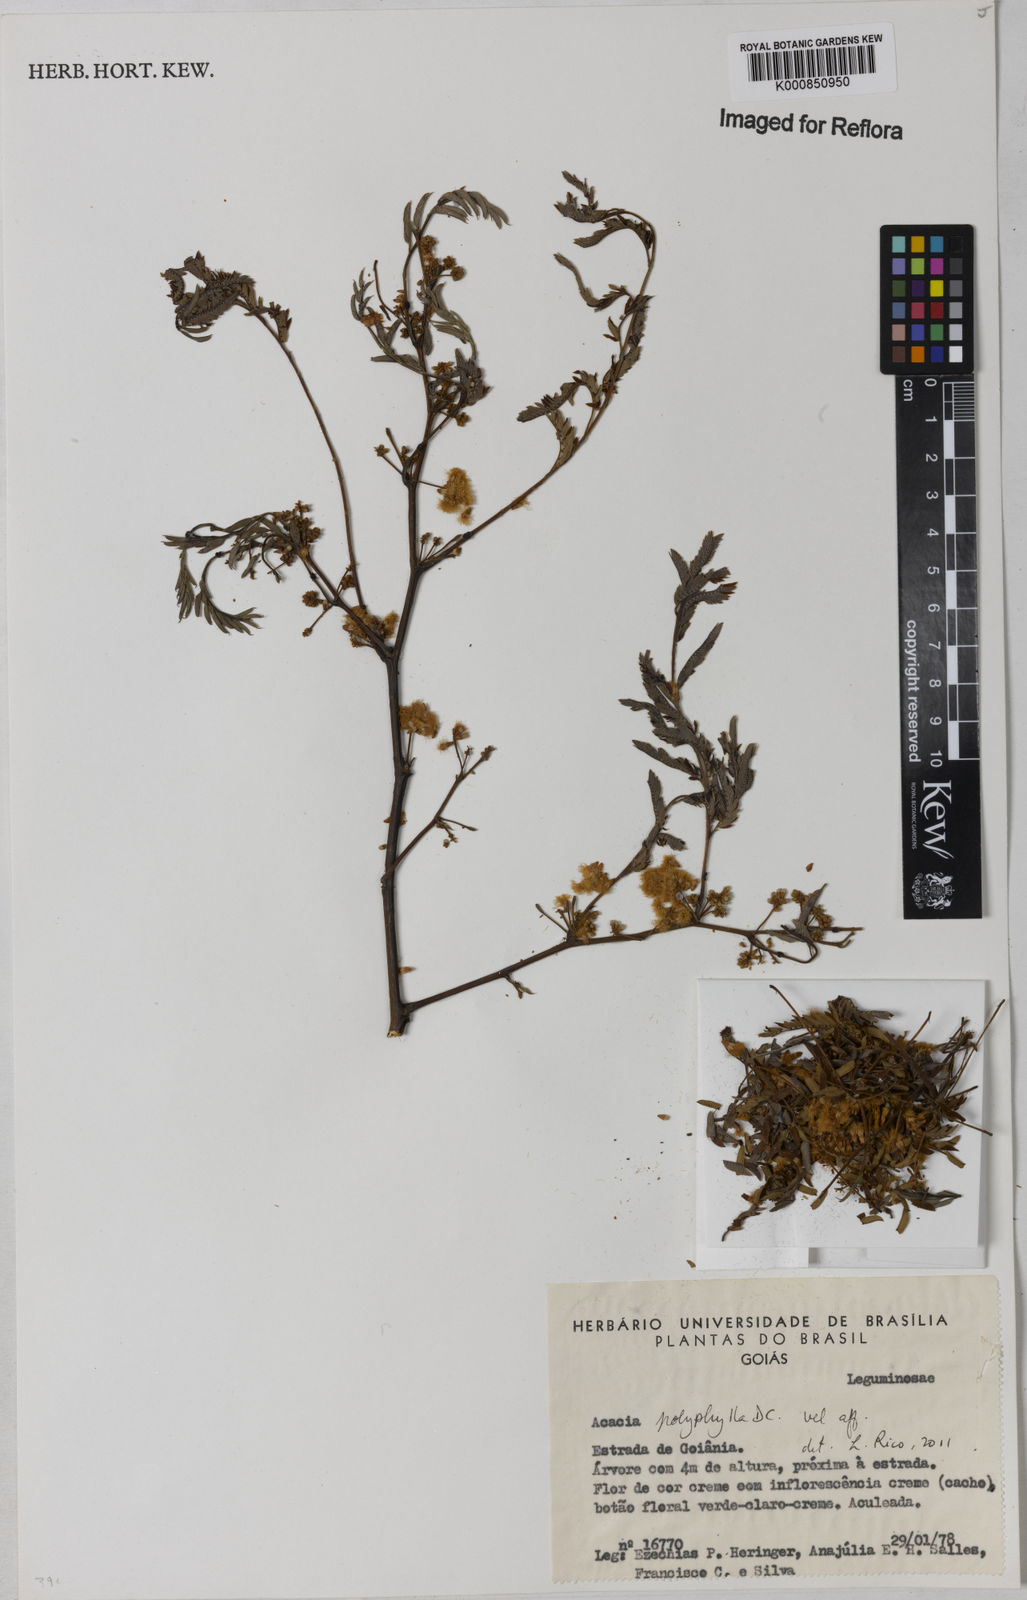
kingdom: Plantae
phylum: Tracheophyta
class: Magnoliopsida
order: Fabales
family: Fabaceae
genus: Senegalia
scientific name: Senegalia polyphylla
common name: White-tamarind
